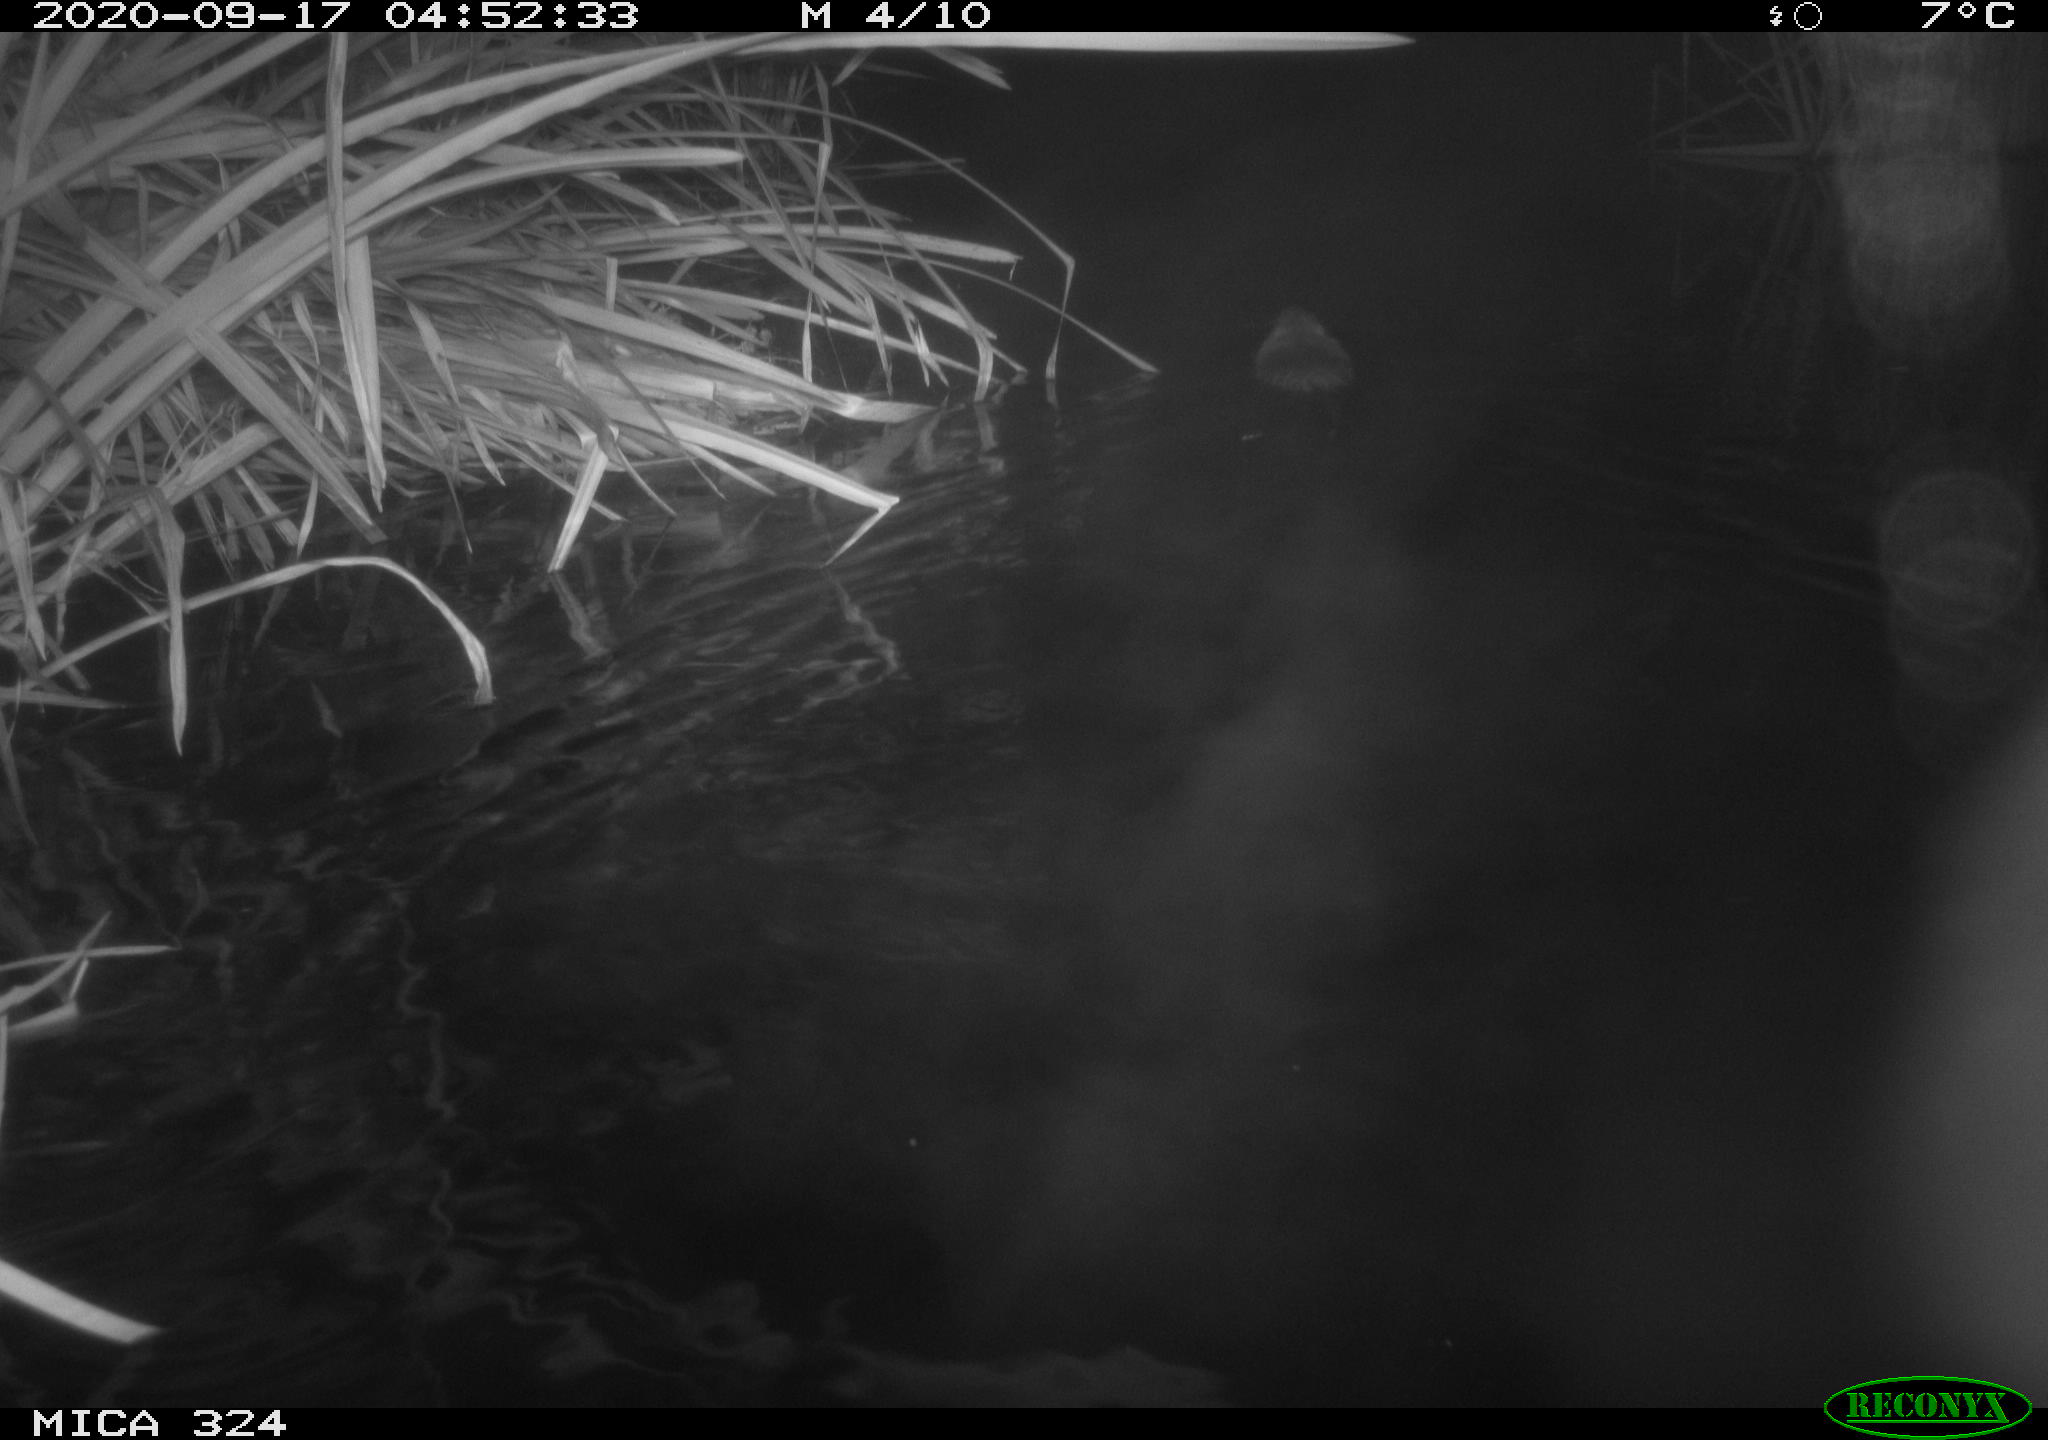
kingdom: Animalia
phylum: Chordata
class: Mammalia
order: Rodentia
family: Cricetidae
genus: Ondatra
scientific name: Ondatra zibethicus
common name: Muskrat
